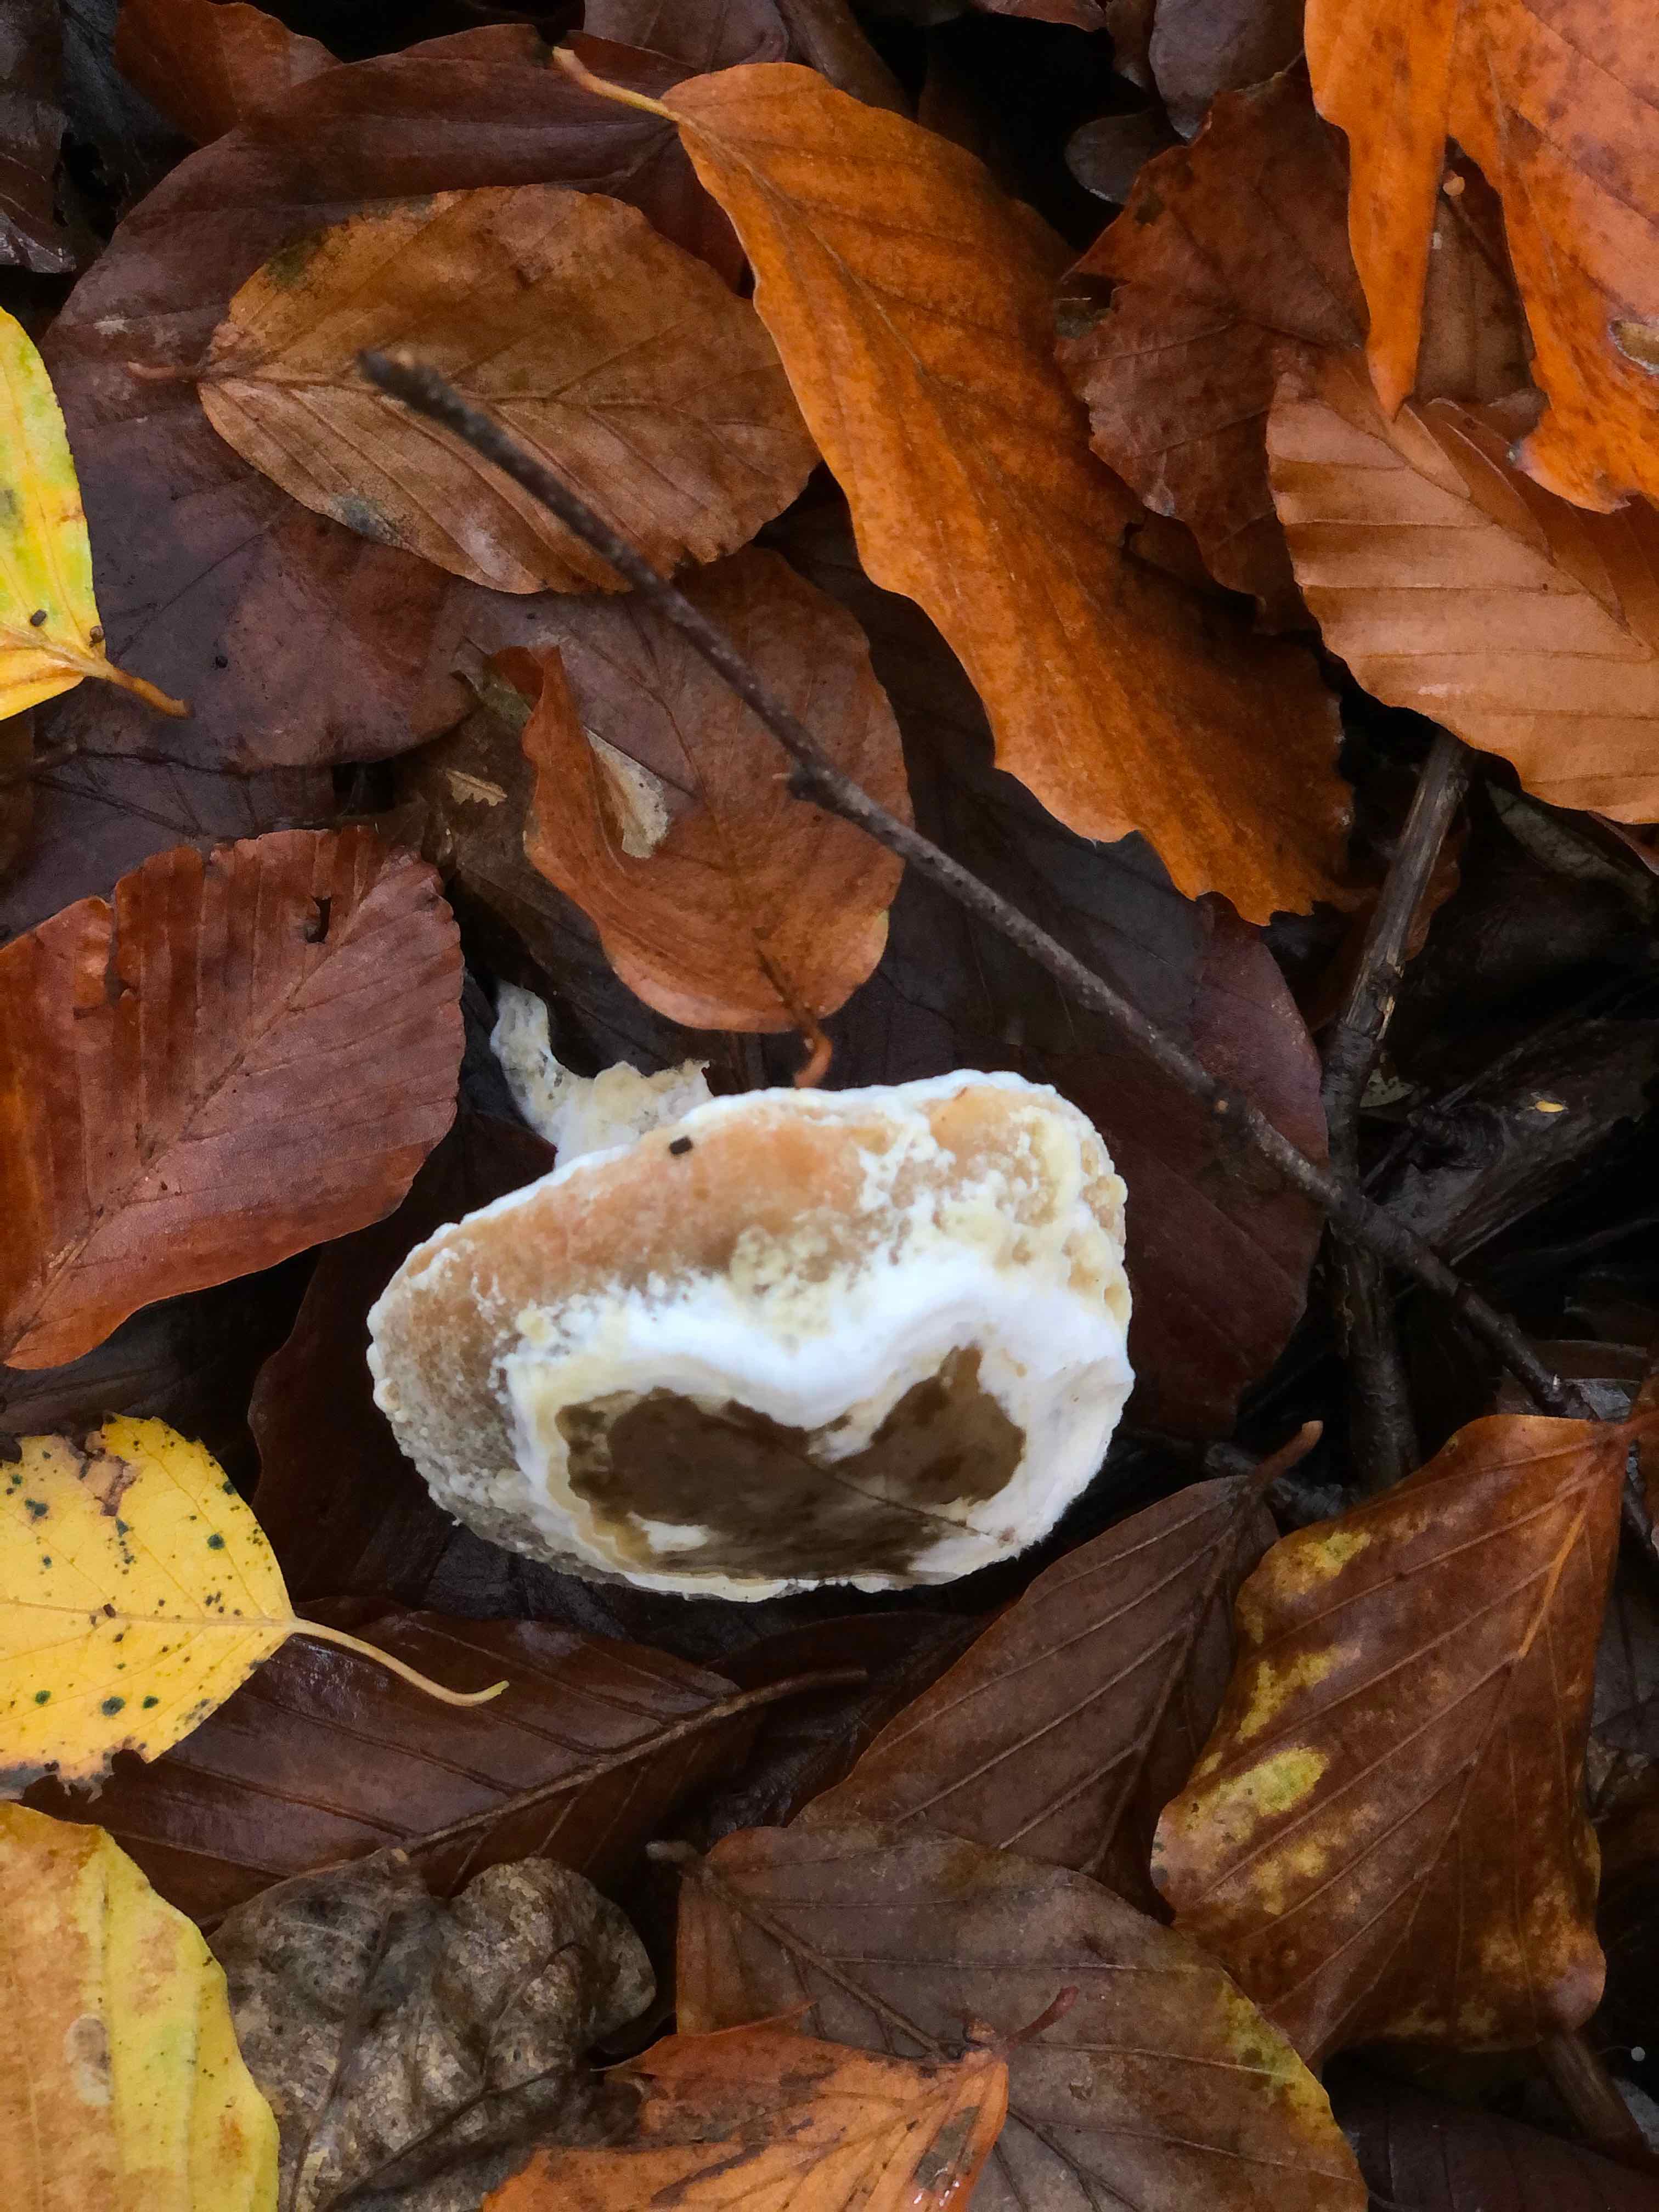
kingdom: Fungi
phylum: Ascomycota
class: Sordariomycetes
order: Hypocreales
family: Hypocreaceae
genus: Hypomyces
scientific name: Hypomyces microspermus
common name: dværgrørhat-snylteskorpe
